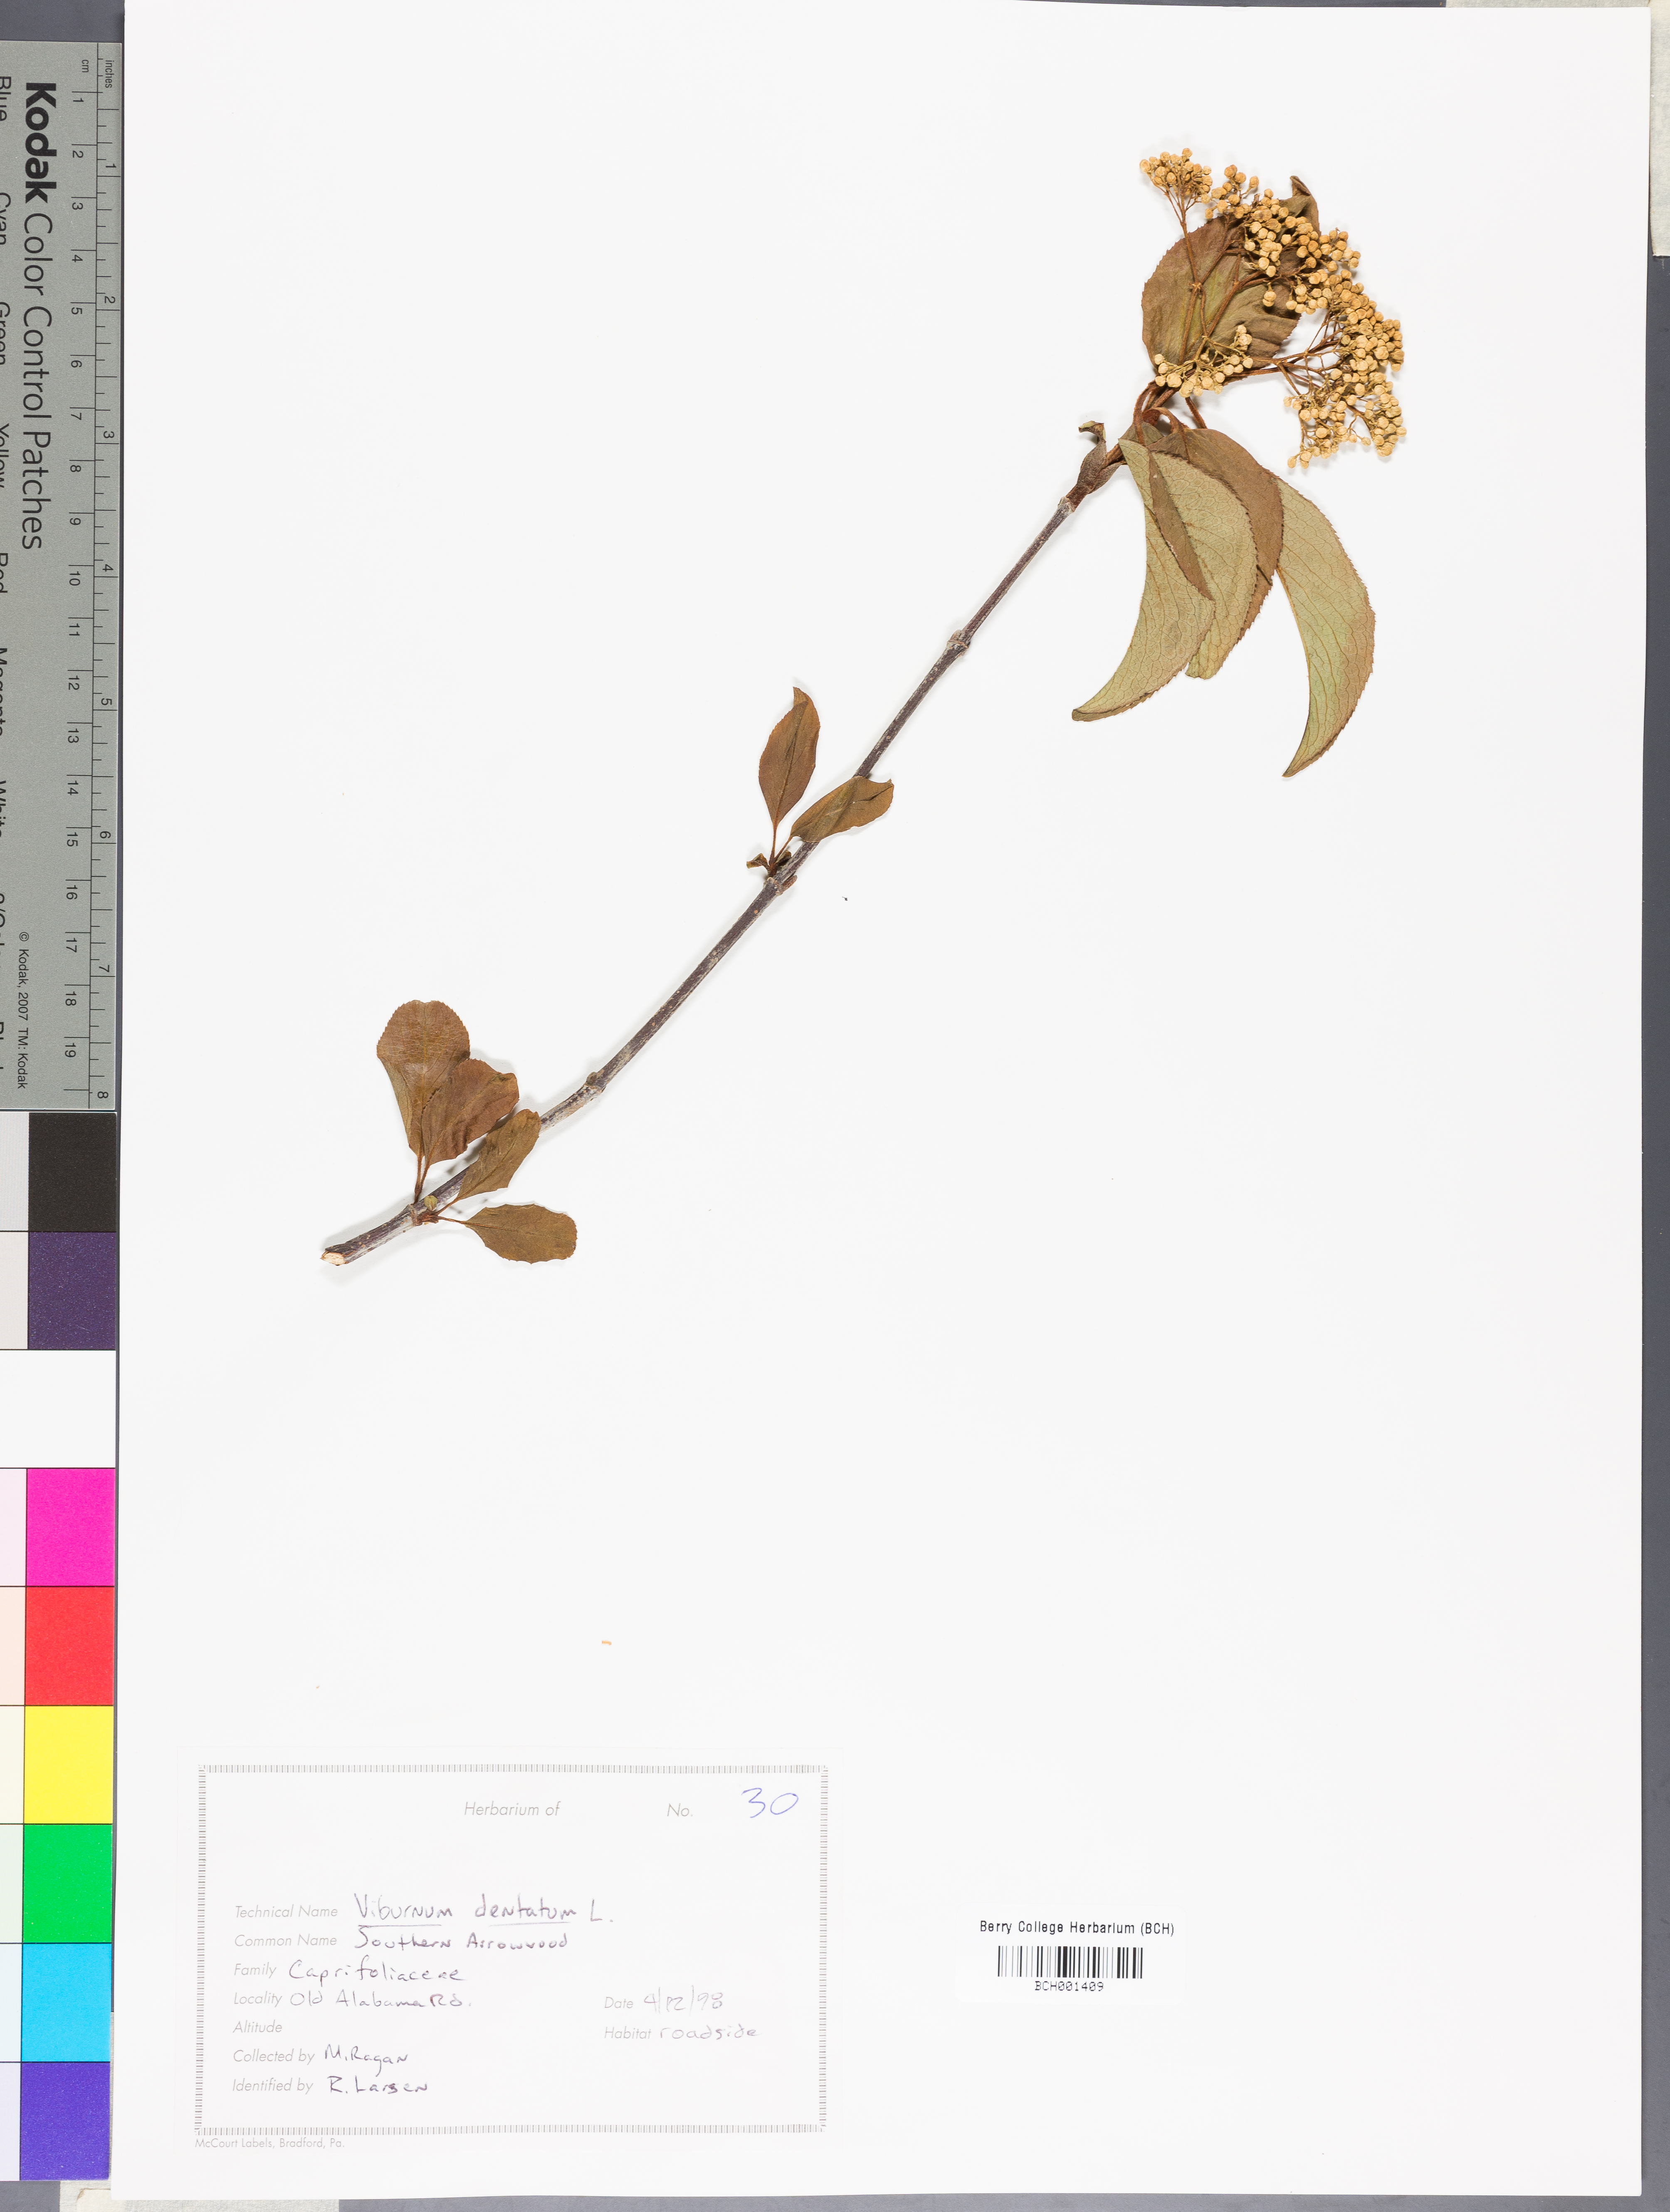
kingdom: Plantae
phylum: Tracheophyta
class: Magnoliopsida
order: Dipsacales
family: Viburnaceae
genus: Viburnum
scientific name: Viburnum dentatum
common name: Arrow-wood
